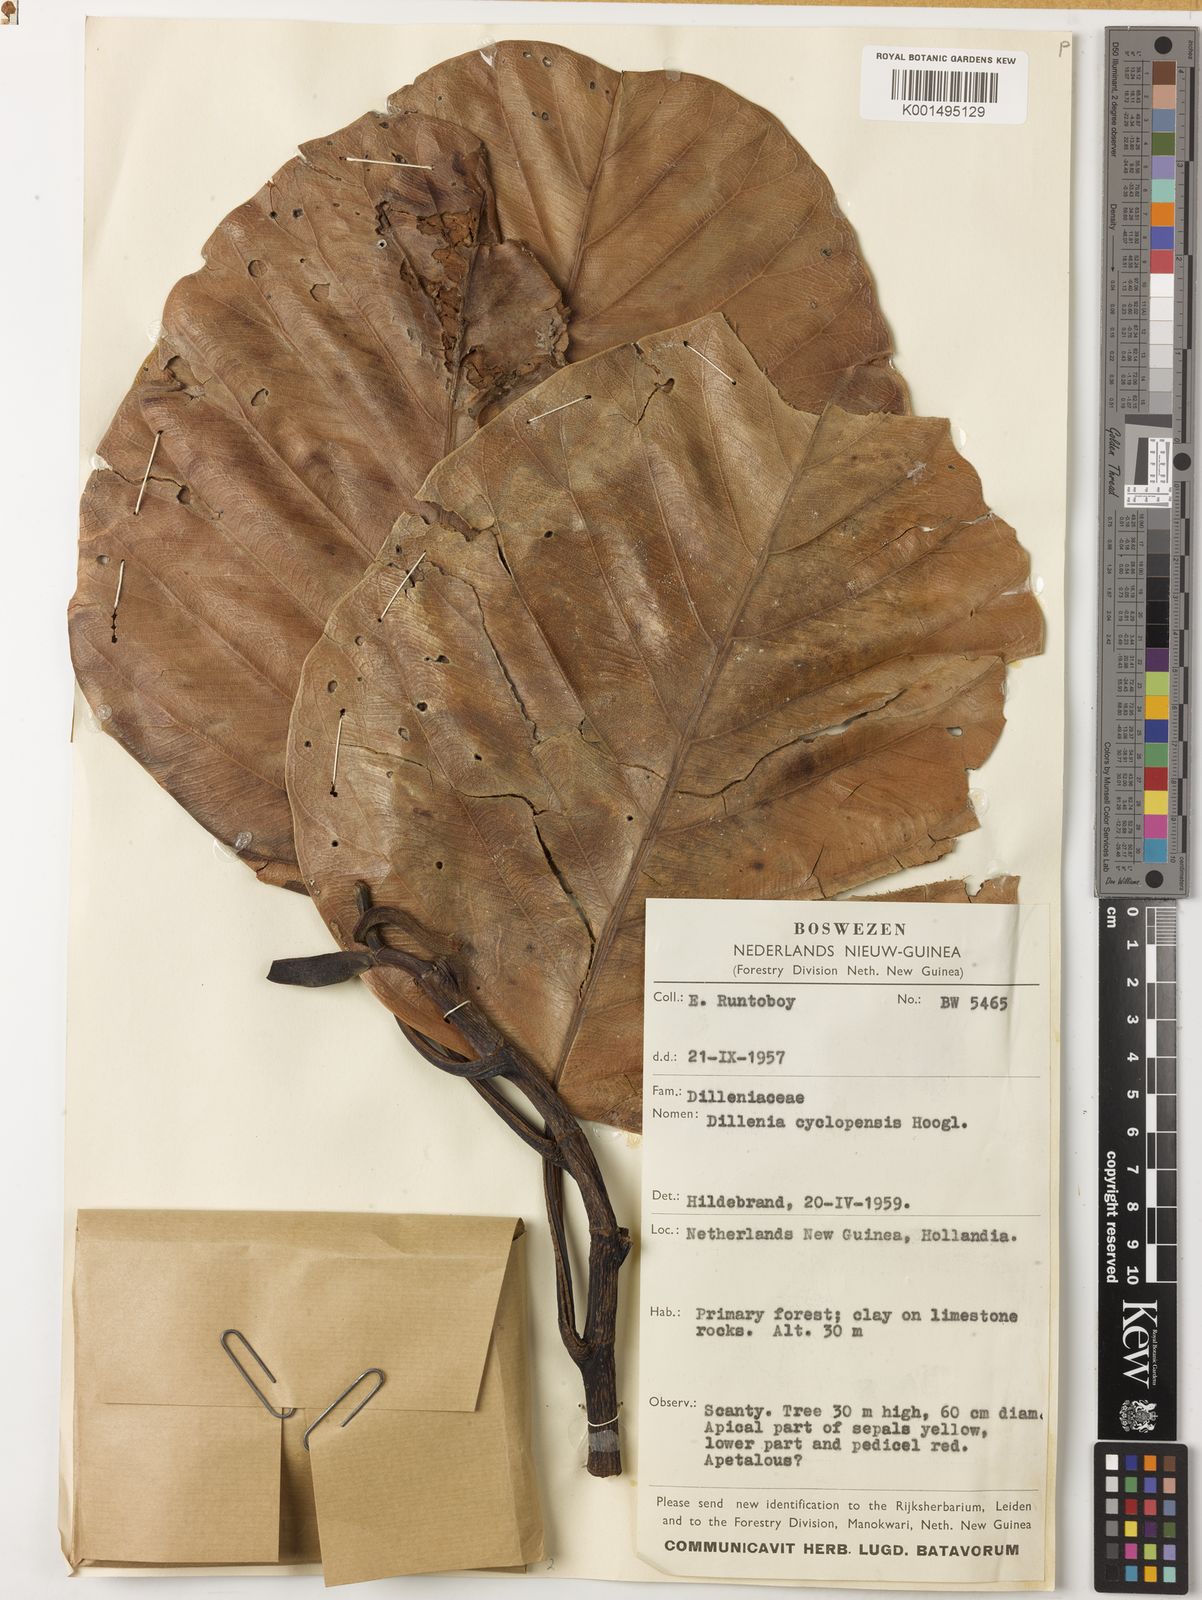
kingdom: Plantae
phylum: Tracheophyta
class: Magnoliopsida
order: Dilleniales
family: Dilleniaceae
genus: Dillenia
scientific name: Dillenia cyclopensis
